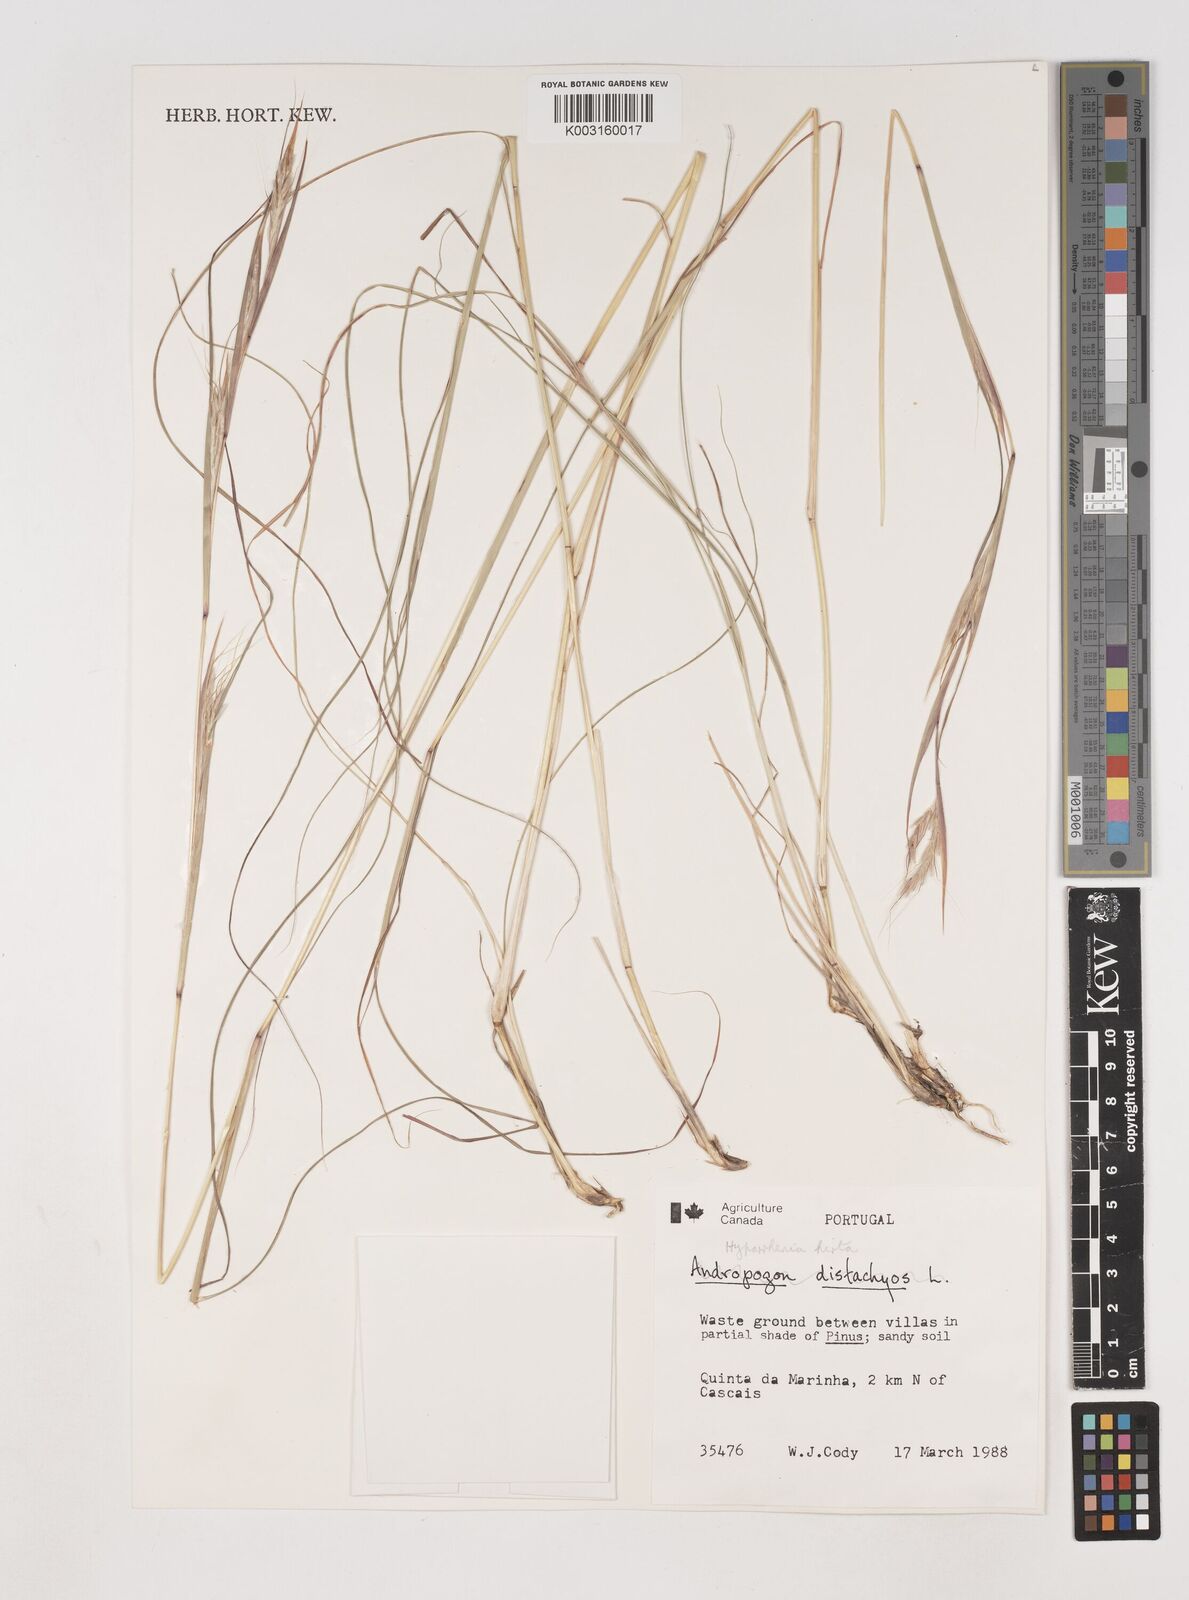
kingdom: Plantae
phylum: Tracheophyta
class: Liliopsida
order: Poales
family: Poaceae
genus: Hyparrhenia
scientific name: Hyparrhenia hirta
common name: Thatching grass
